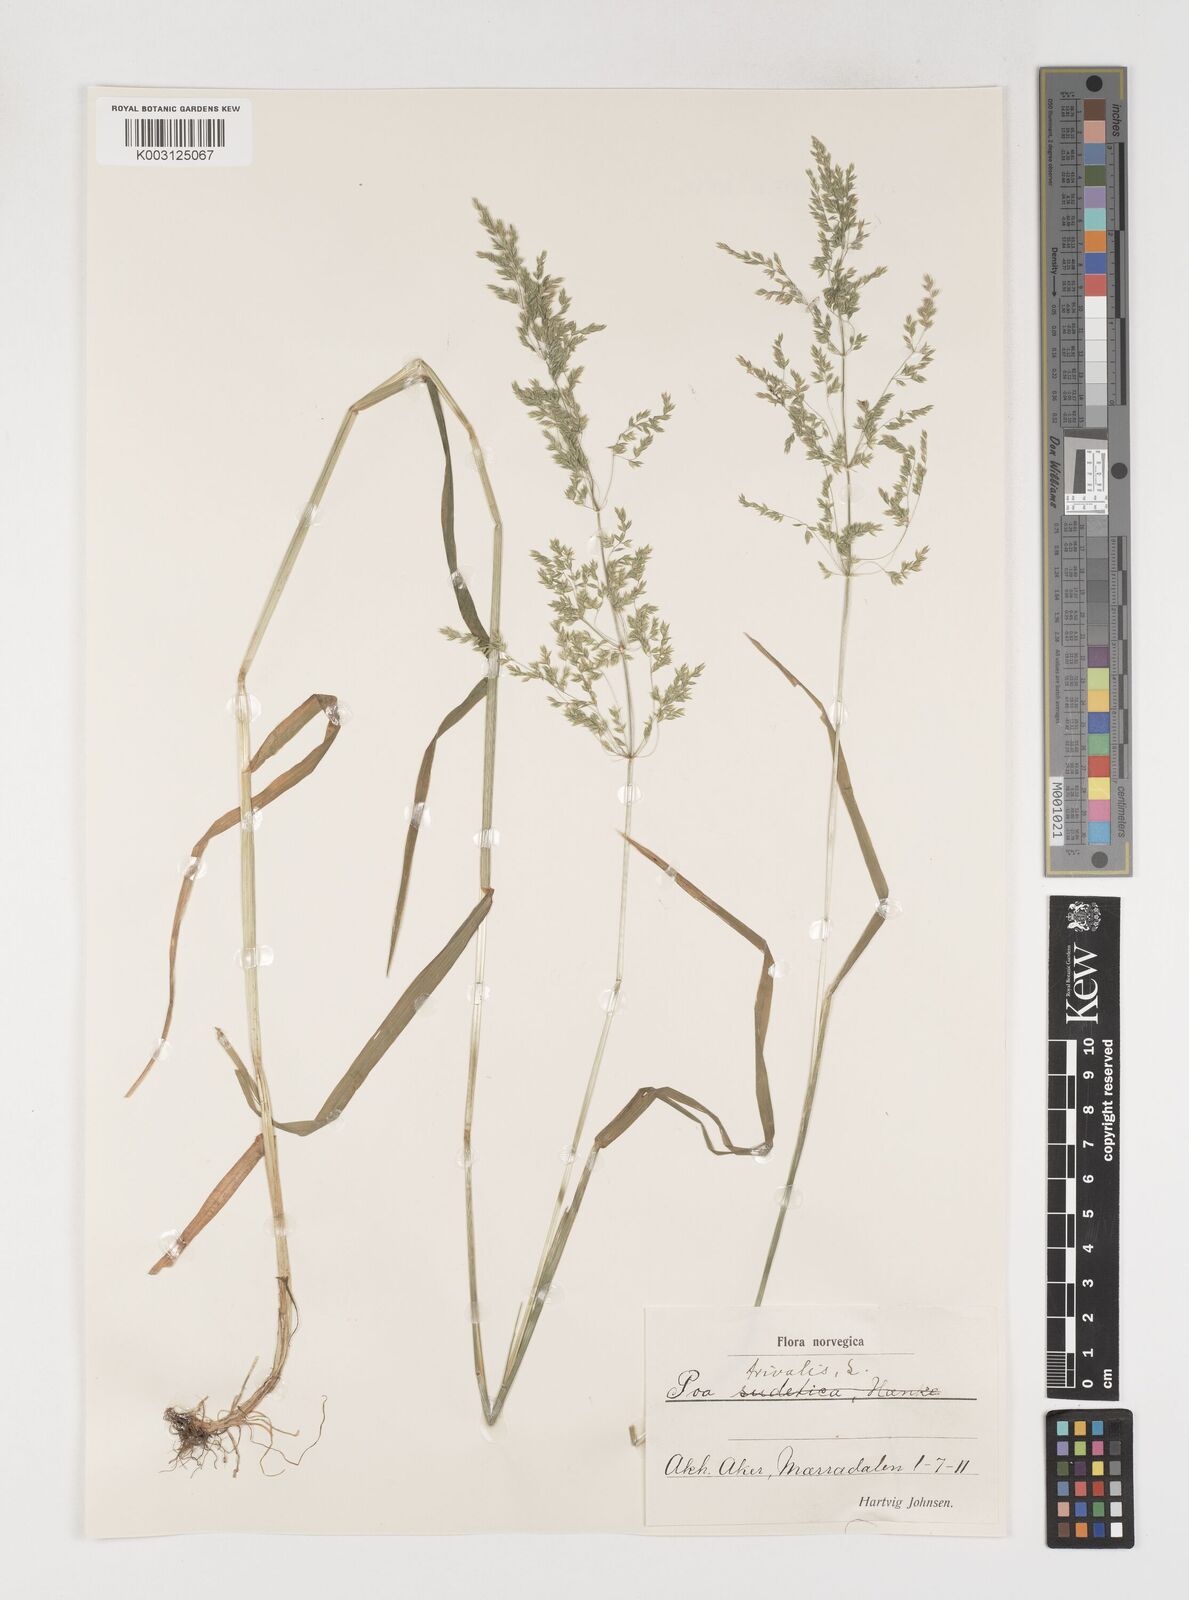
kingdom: Plantae
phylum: Tracheophyta
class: Liliopsida
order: Poales
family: Poaceae
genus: Poa
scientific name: Poa trivialis
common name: Rough bluegrass
